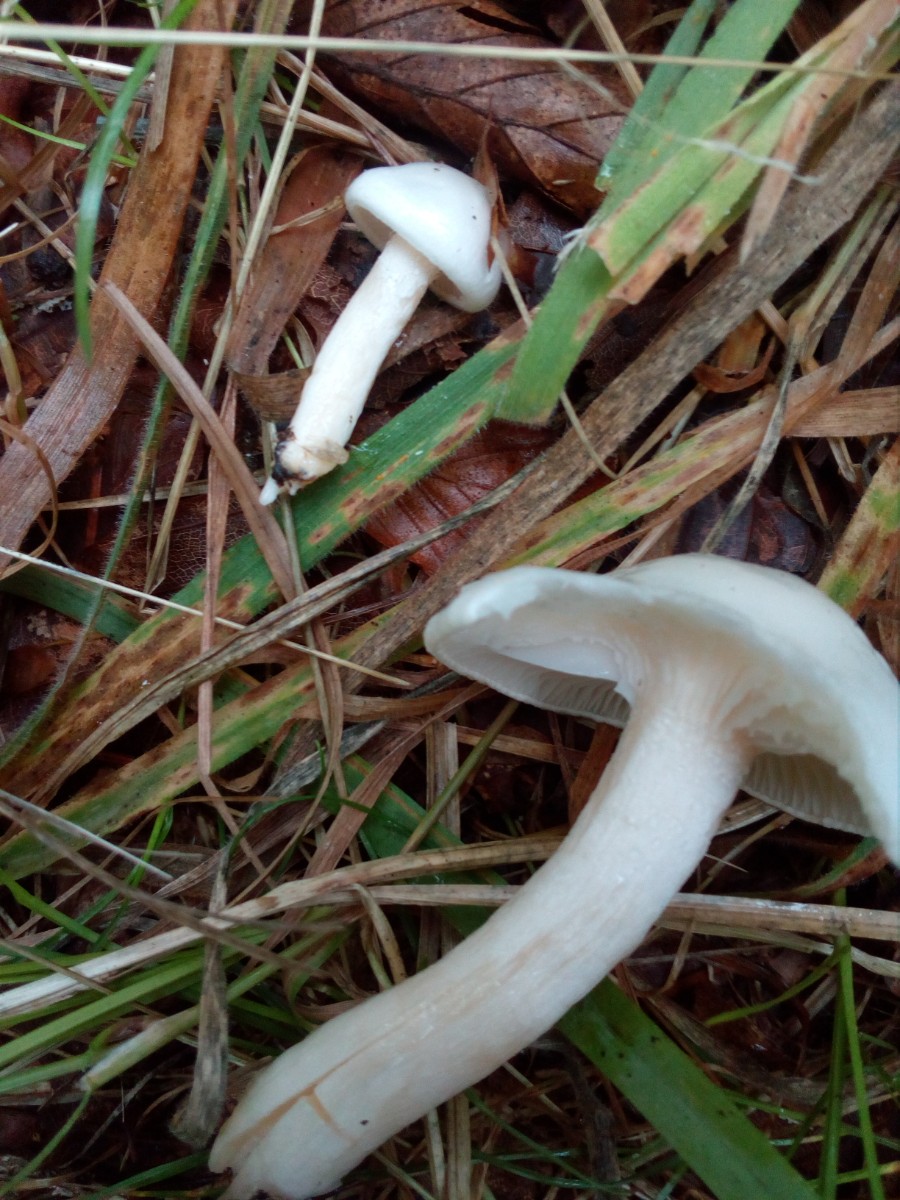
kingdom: Fungi
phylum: Basidiomycota
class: Agaricomycetes
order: Agaricales
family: Hygrophoraceae
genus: Hygrophorus
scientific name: Hygrophorus eburneus
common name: elfenbens-sneglehat
